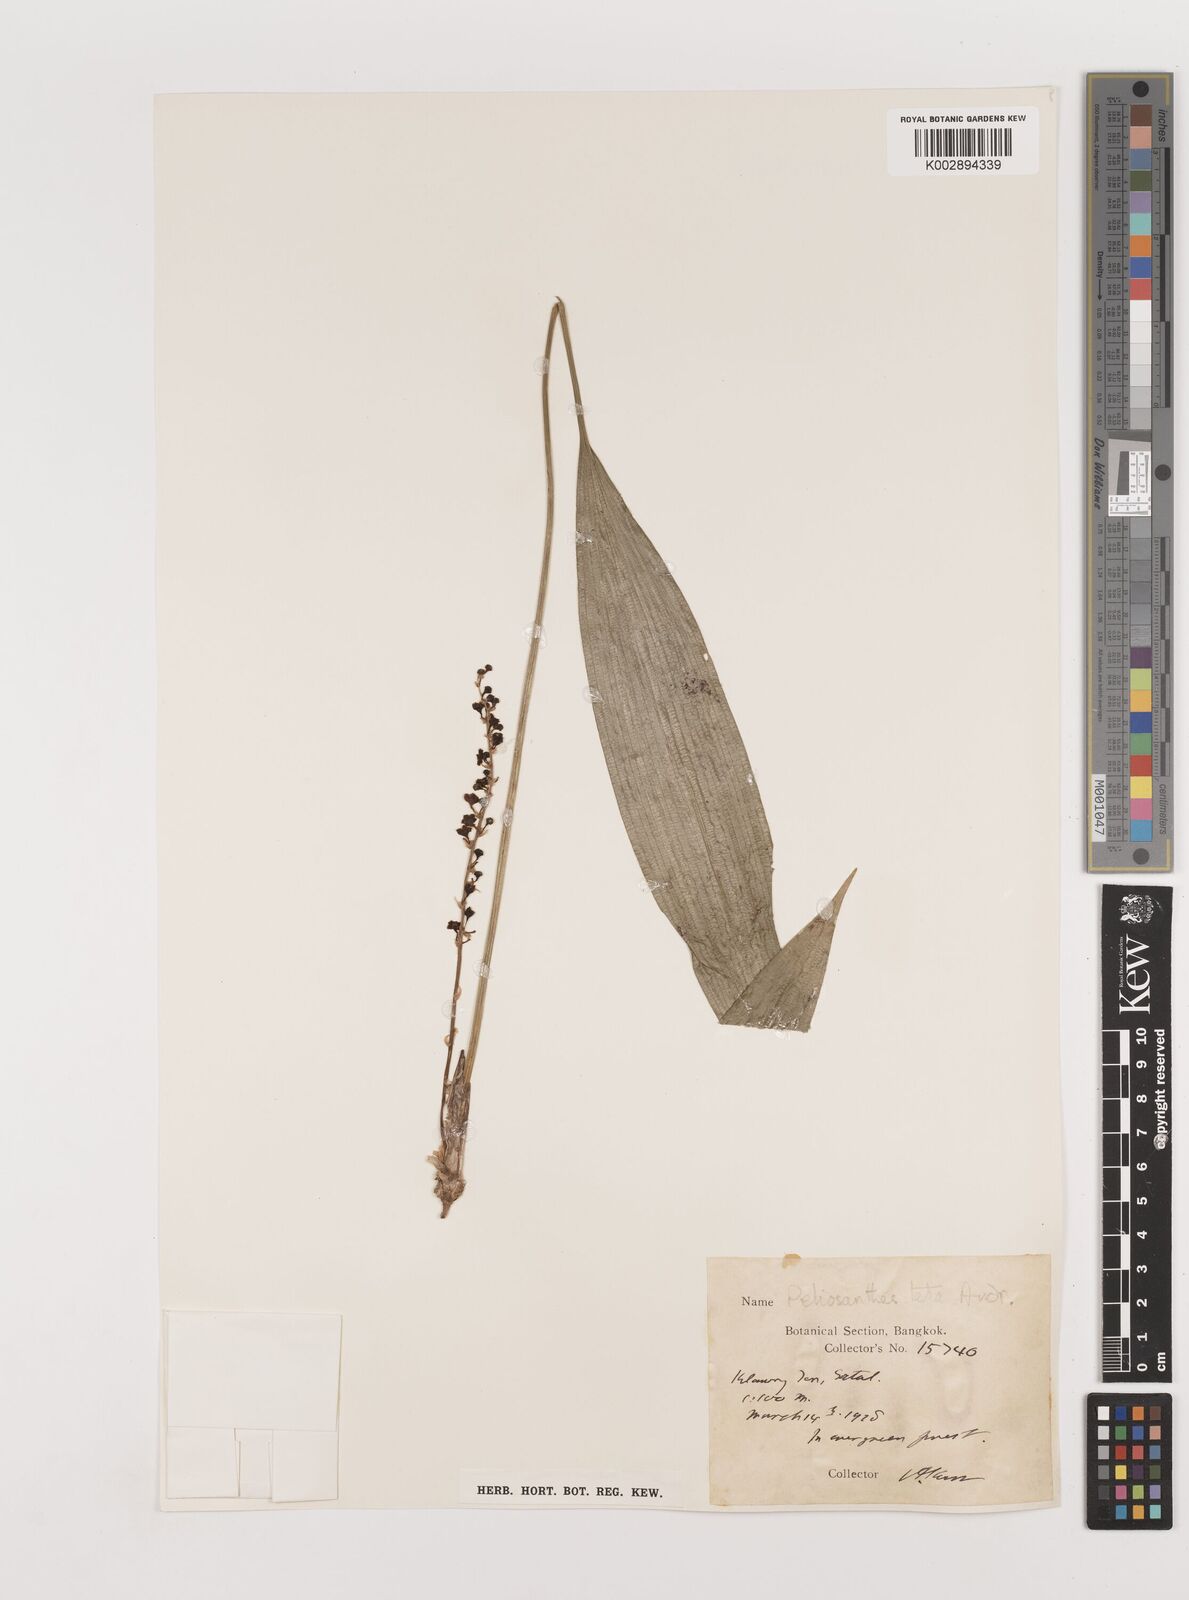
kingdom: Plantae
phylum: Tracheophyta
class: Liliopsida
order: Asparagales
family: Asparagaceae
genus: Peliosanthes
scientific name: Peliosanthes teta
